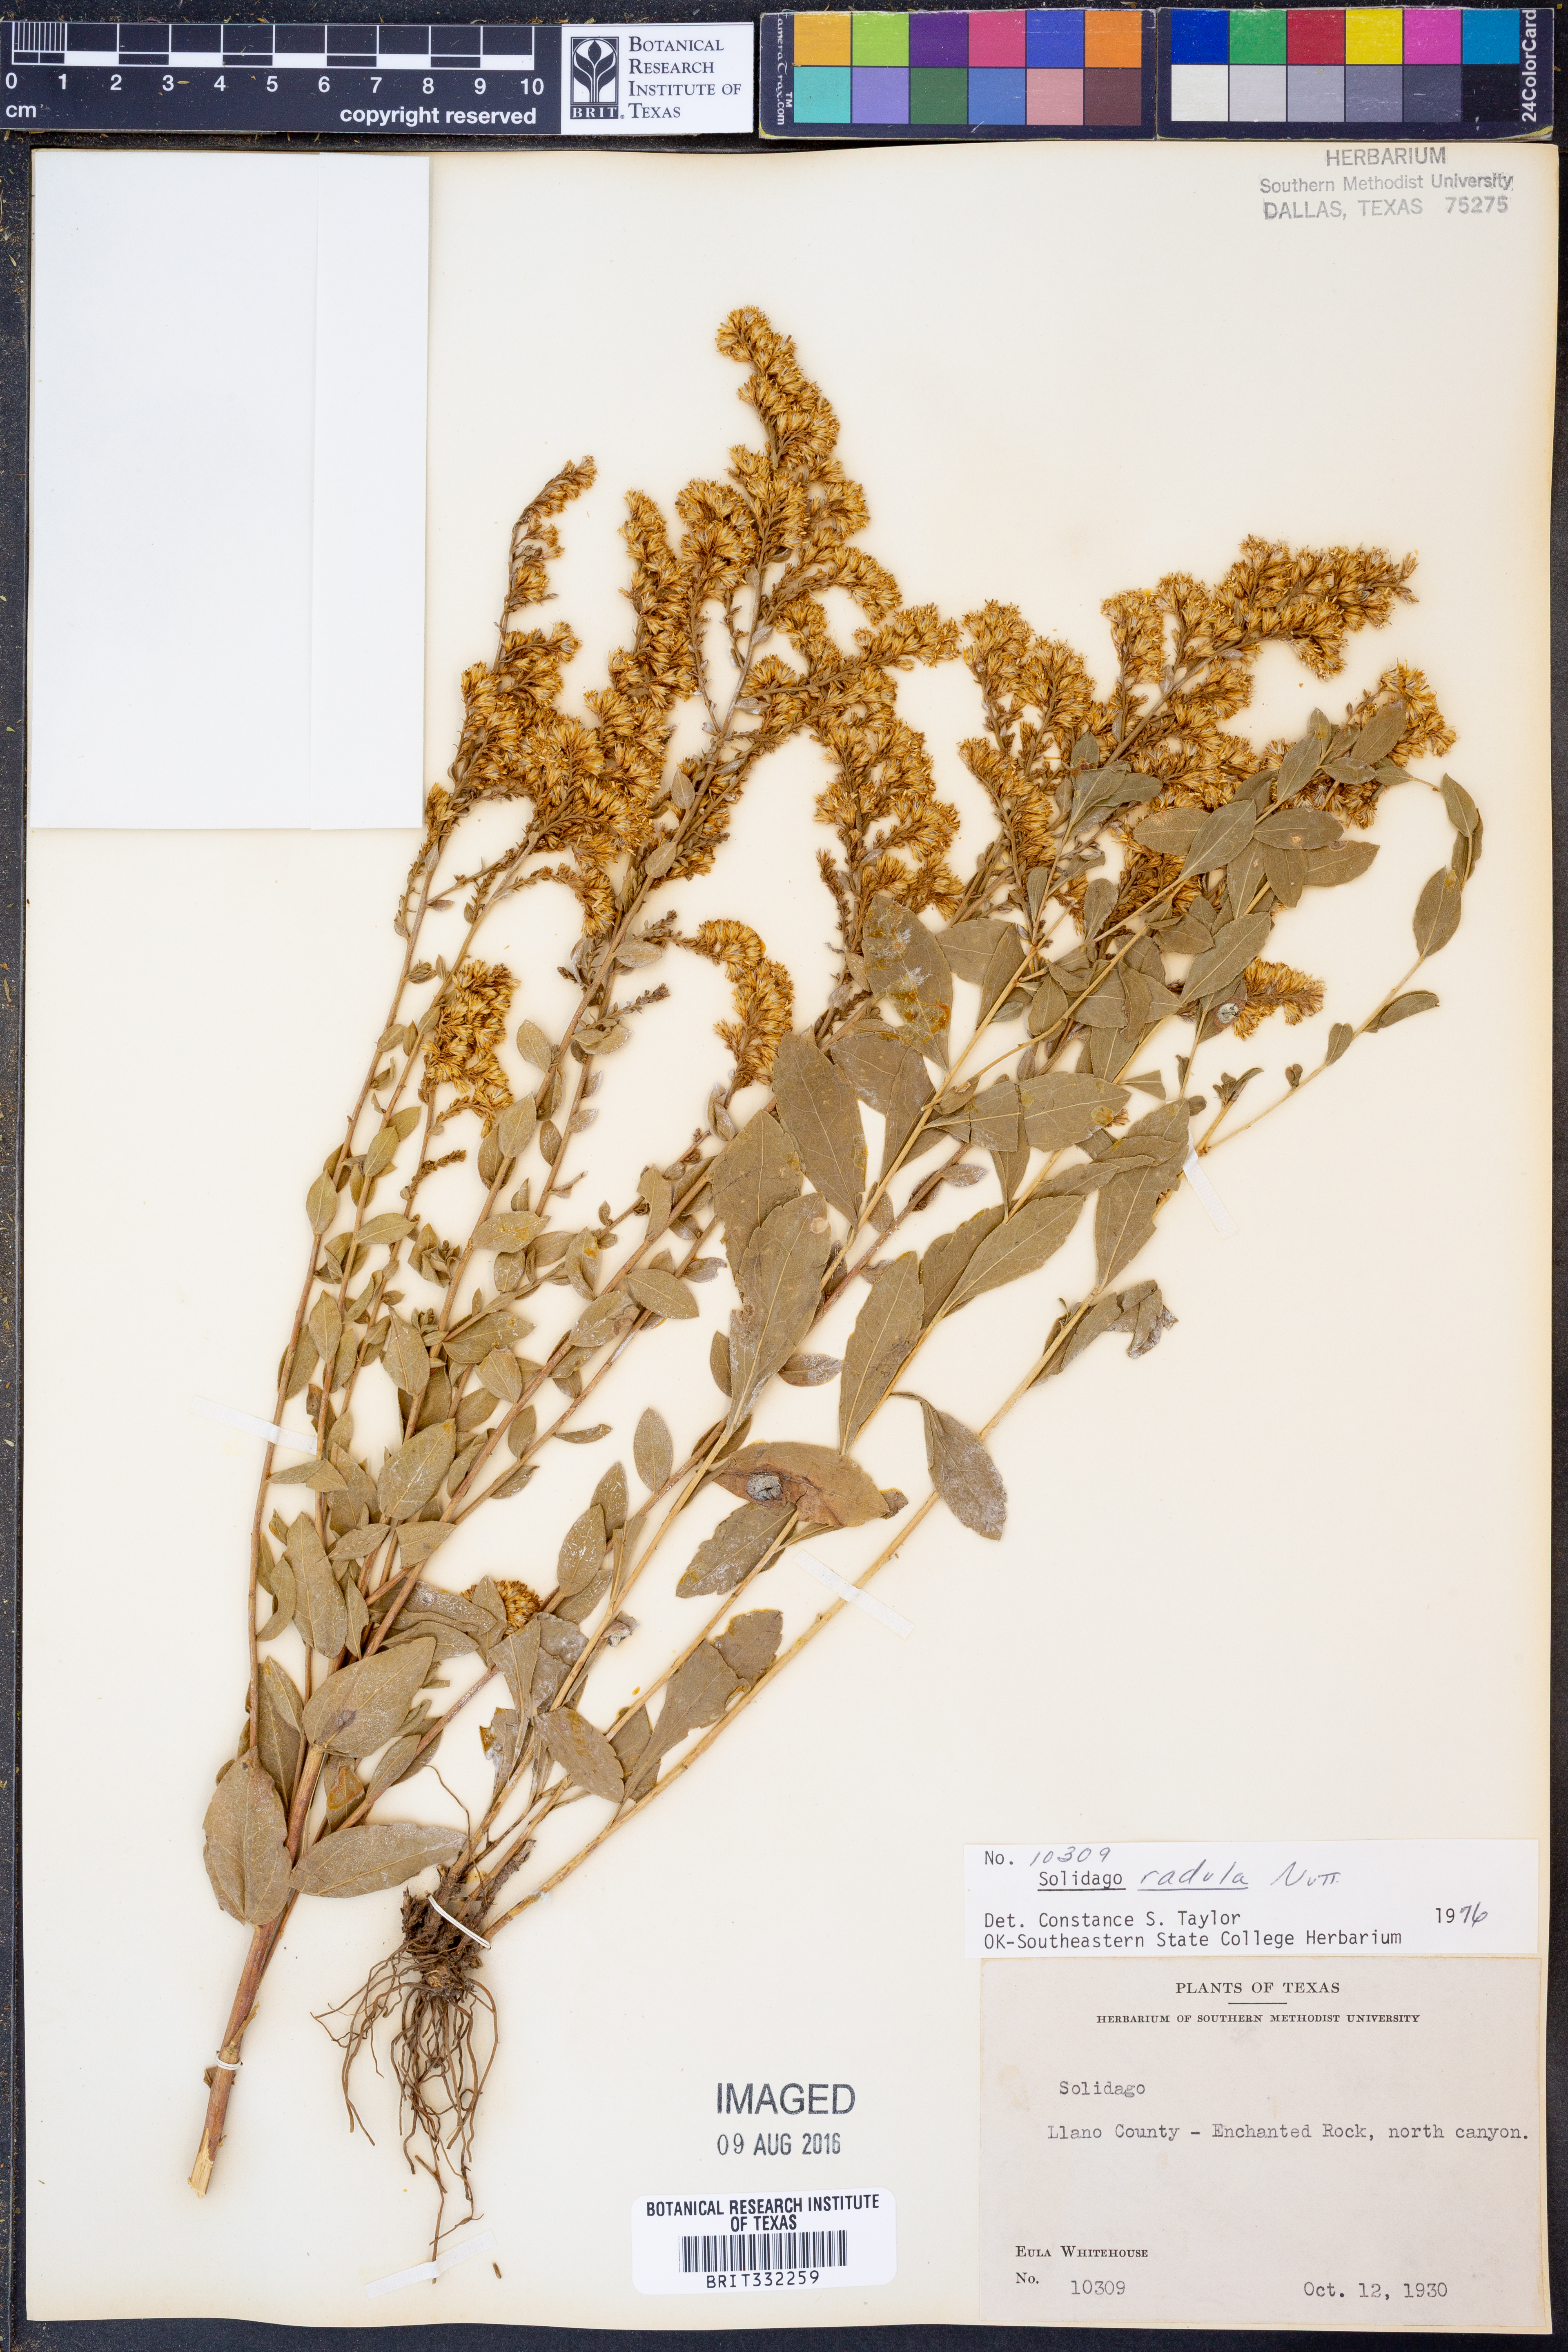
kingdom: Plantae
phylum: Tracheophyta
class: Magnoliopsida
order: Asterales
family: Asteraceae
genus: Solidago
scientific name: Solidago radula
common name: Western rough goldenrod
